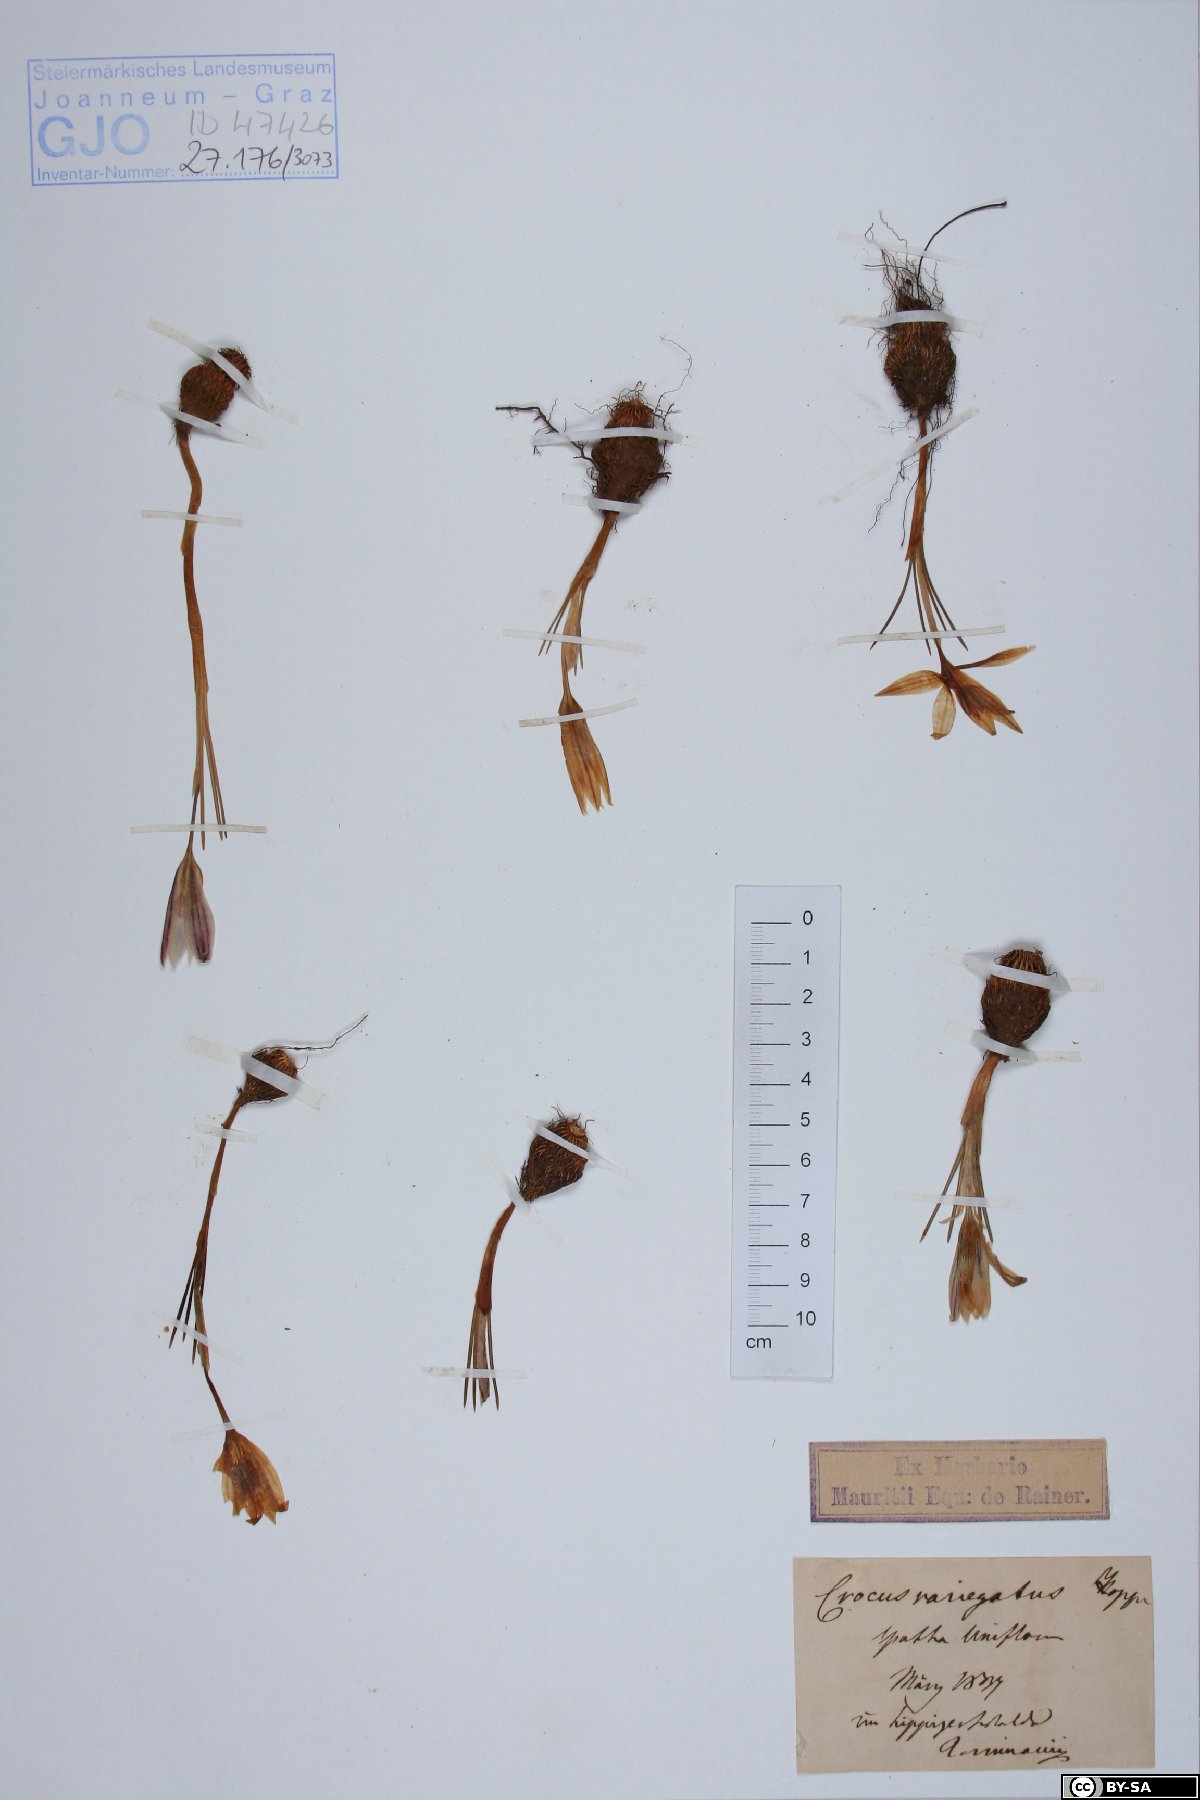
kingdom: Plantae
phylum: Tracheophyta
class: Liliopsida
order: Asparagales
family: Iridaceae
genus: Crocus
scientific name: Crocus variegatus
